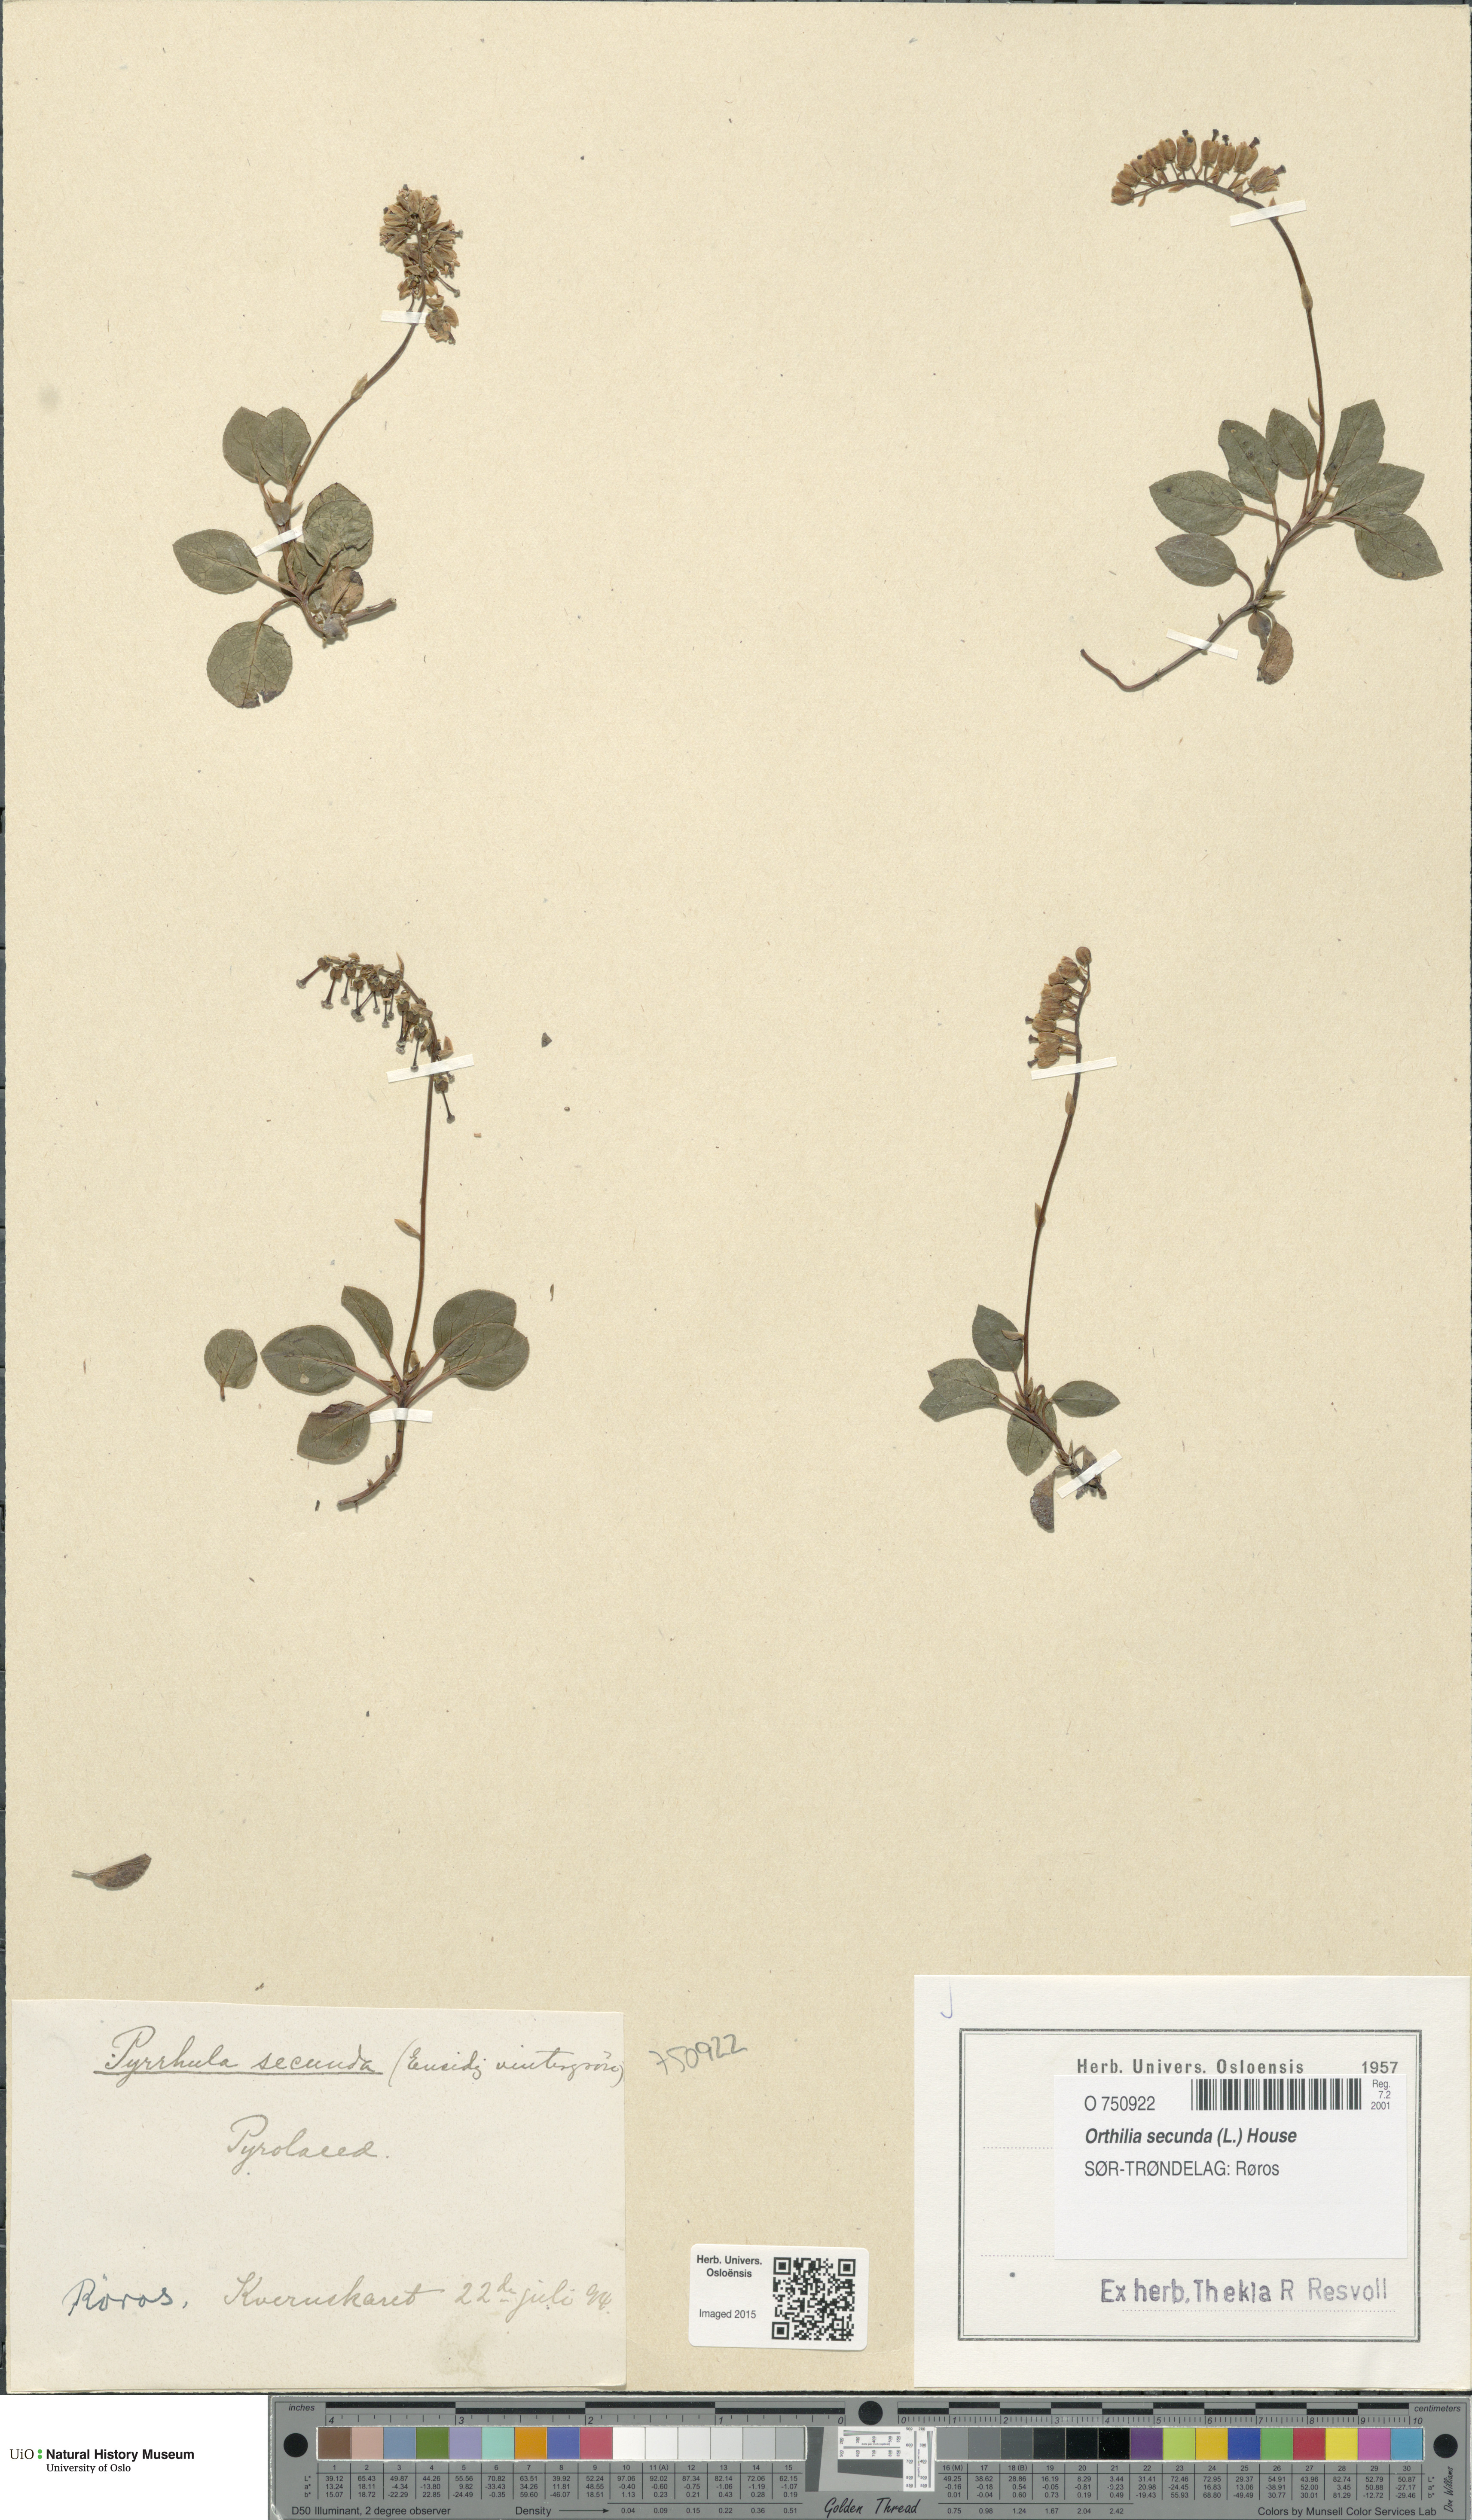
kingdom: Plantae
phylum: Tracheophyta
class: Magnoliopsida
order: Ericales
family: Ericaceae
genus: Orthilia
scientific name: Orthilia secunda
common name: One-sided orthilia
